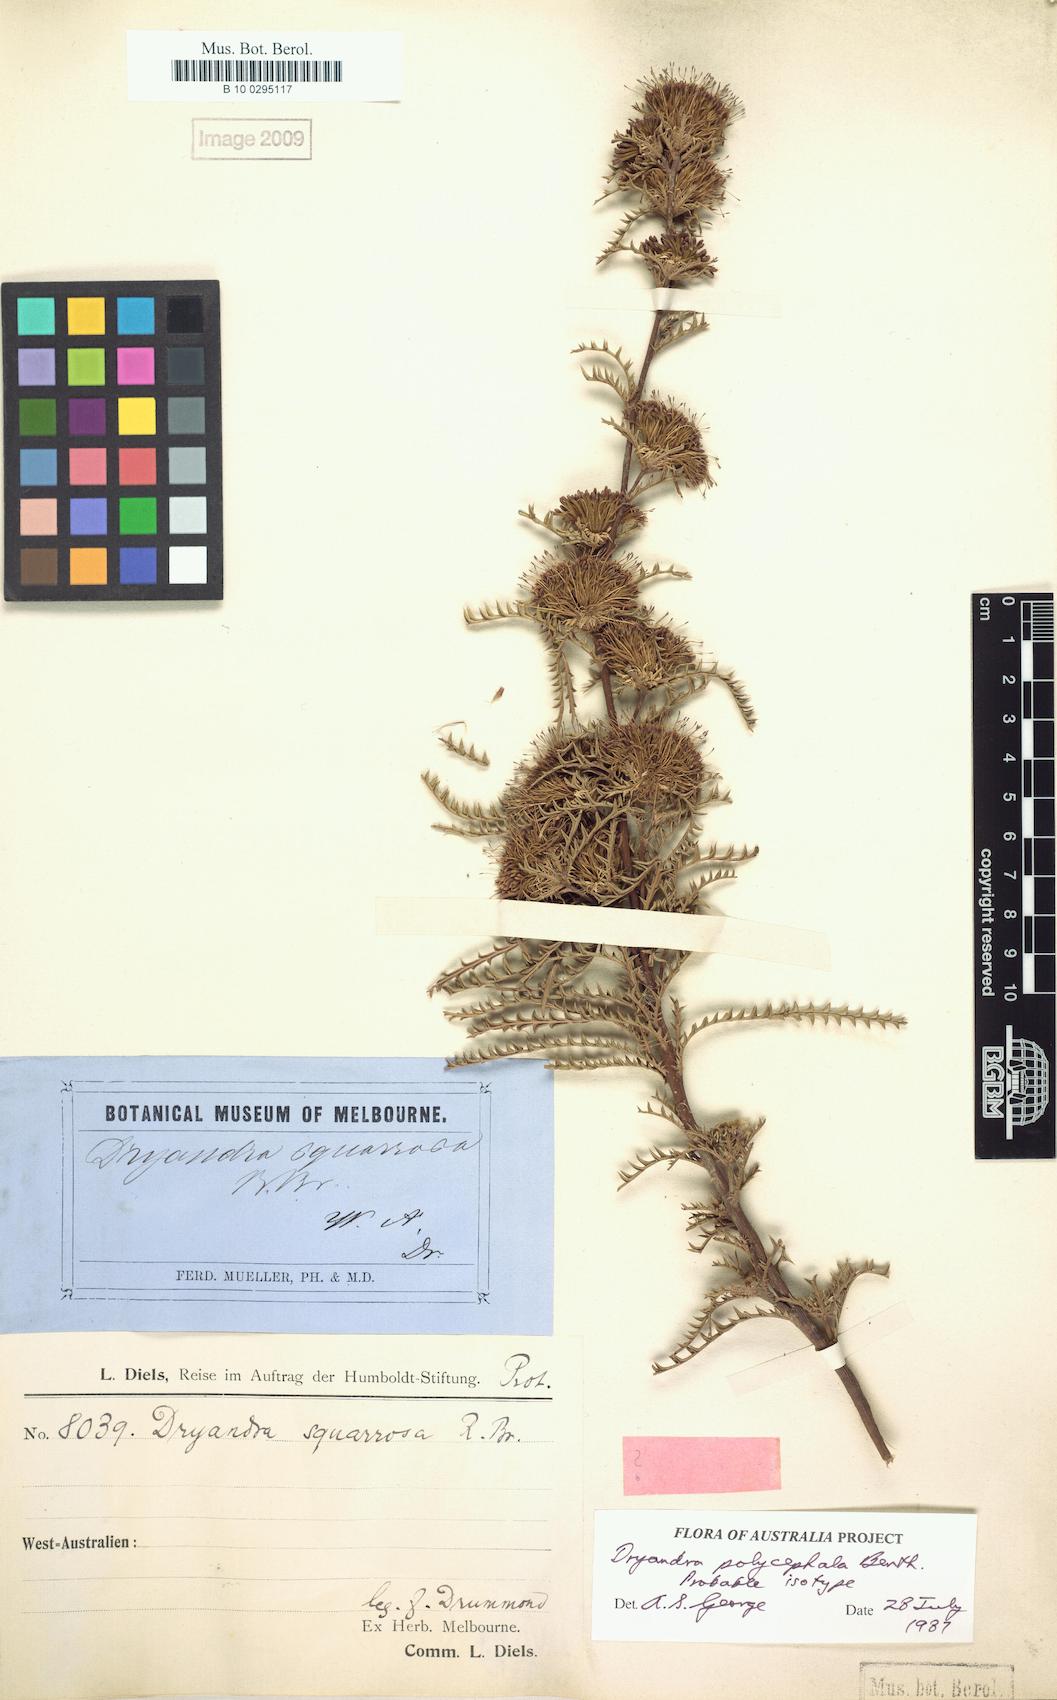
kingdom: Plantae
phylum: Tracheophyta
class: Magnoliopsida
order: Proteales
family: Proteaceae
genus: Banksia
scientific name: Banksia polycephala
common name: Many-head dryandra
